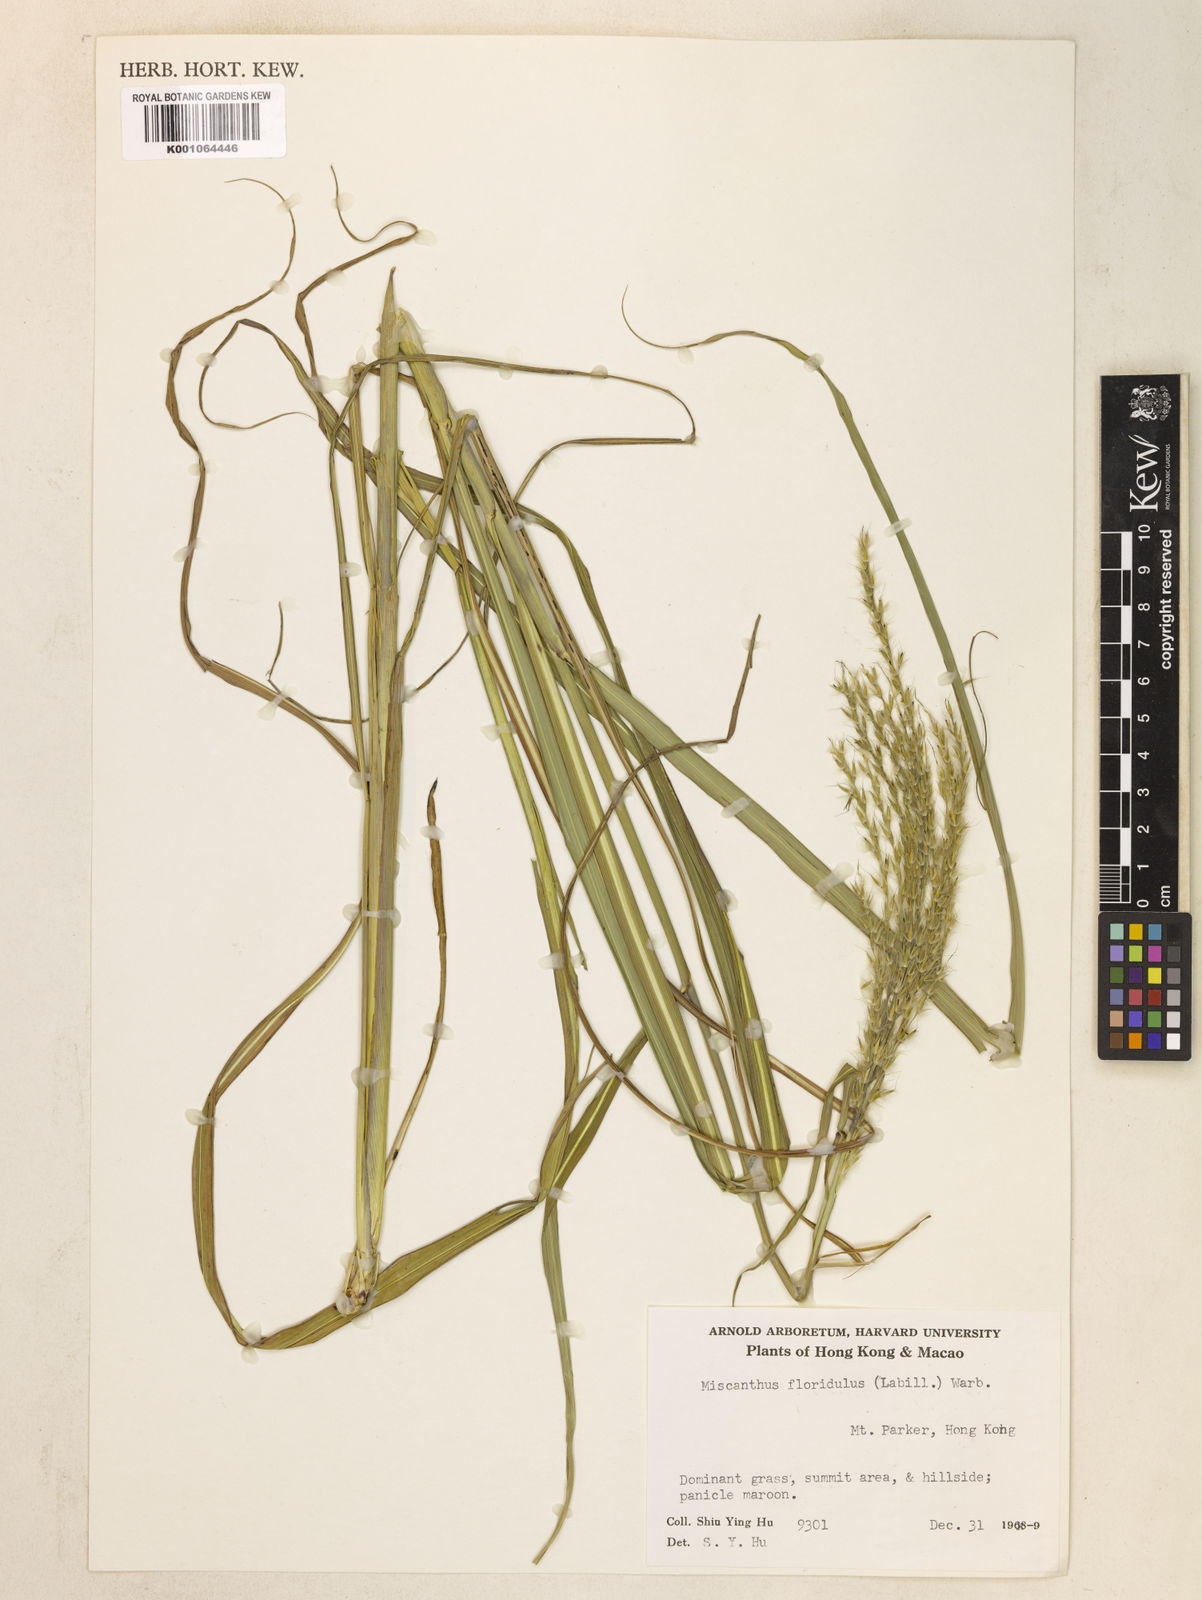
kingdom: Plantae
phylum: Tracheophyta
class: Liliopsida
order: Poales
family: Poaceae
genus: Miscanthus
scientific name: Miscanthus sinensis
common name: Chinese silvergrass
